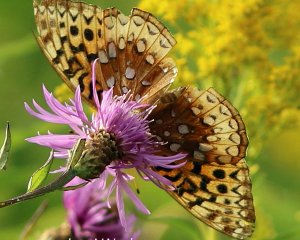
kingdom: Animalia
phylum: Arthropoda
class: Insecta
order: Lepidoptera
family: Nymphalidae
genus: Speyeria
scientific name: Speyeria cybele
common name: Great Spangled Fritillary
